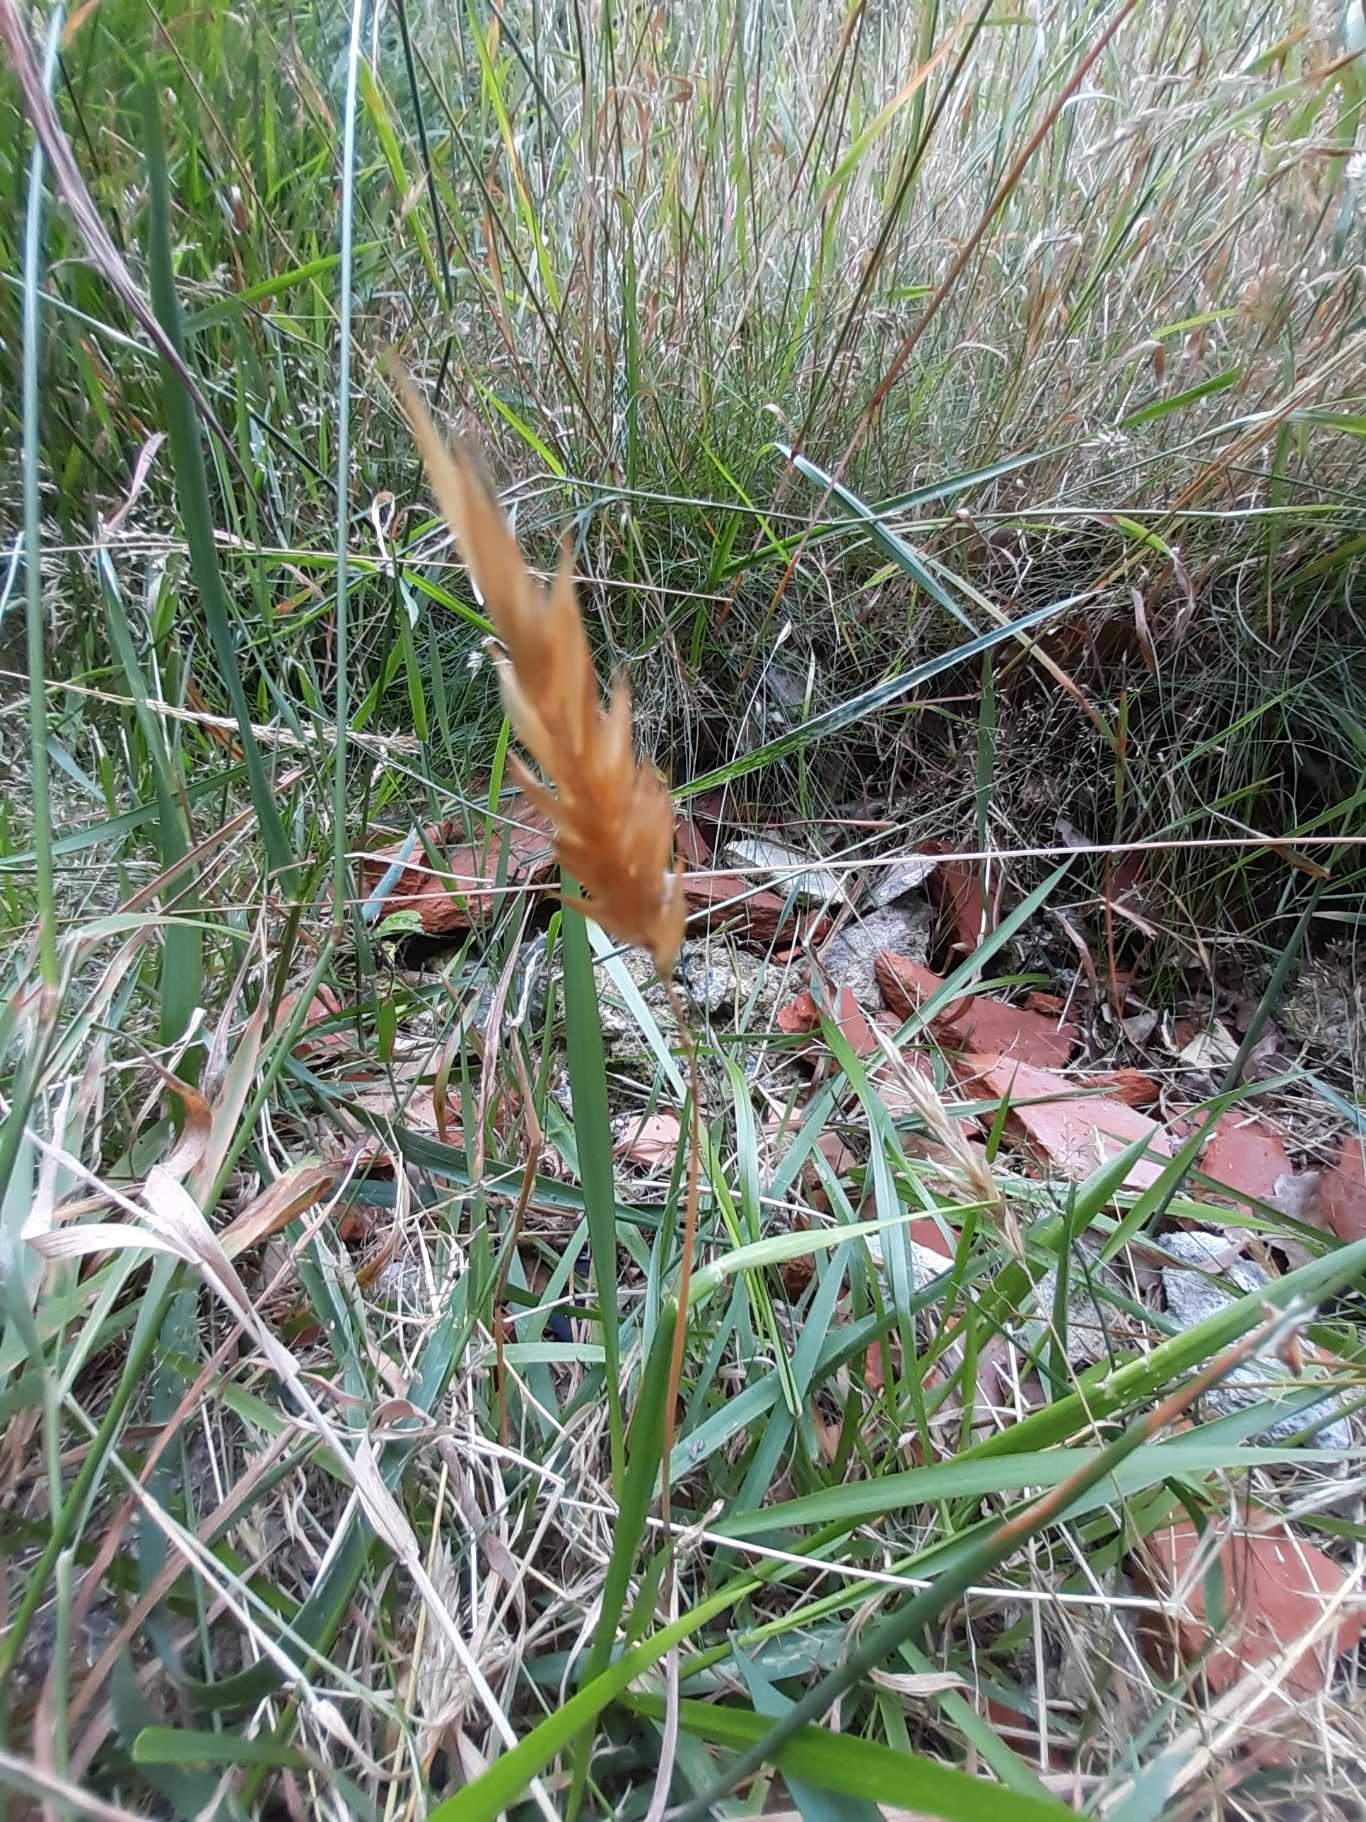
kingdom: Plantae
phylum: Tracheophyta
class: Liliopsida
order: Poales
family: Poaceae
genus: Anthoxanthum
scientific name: Anthoxanthum odoratum
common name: Vellugtende gulaks
